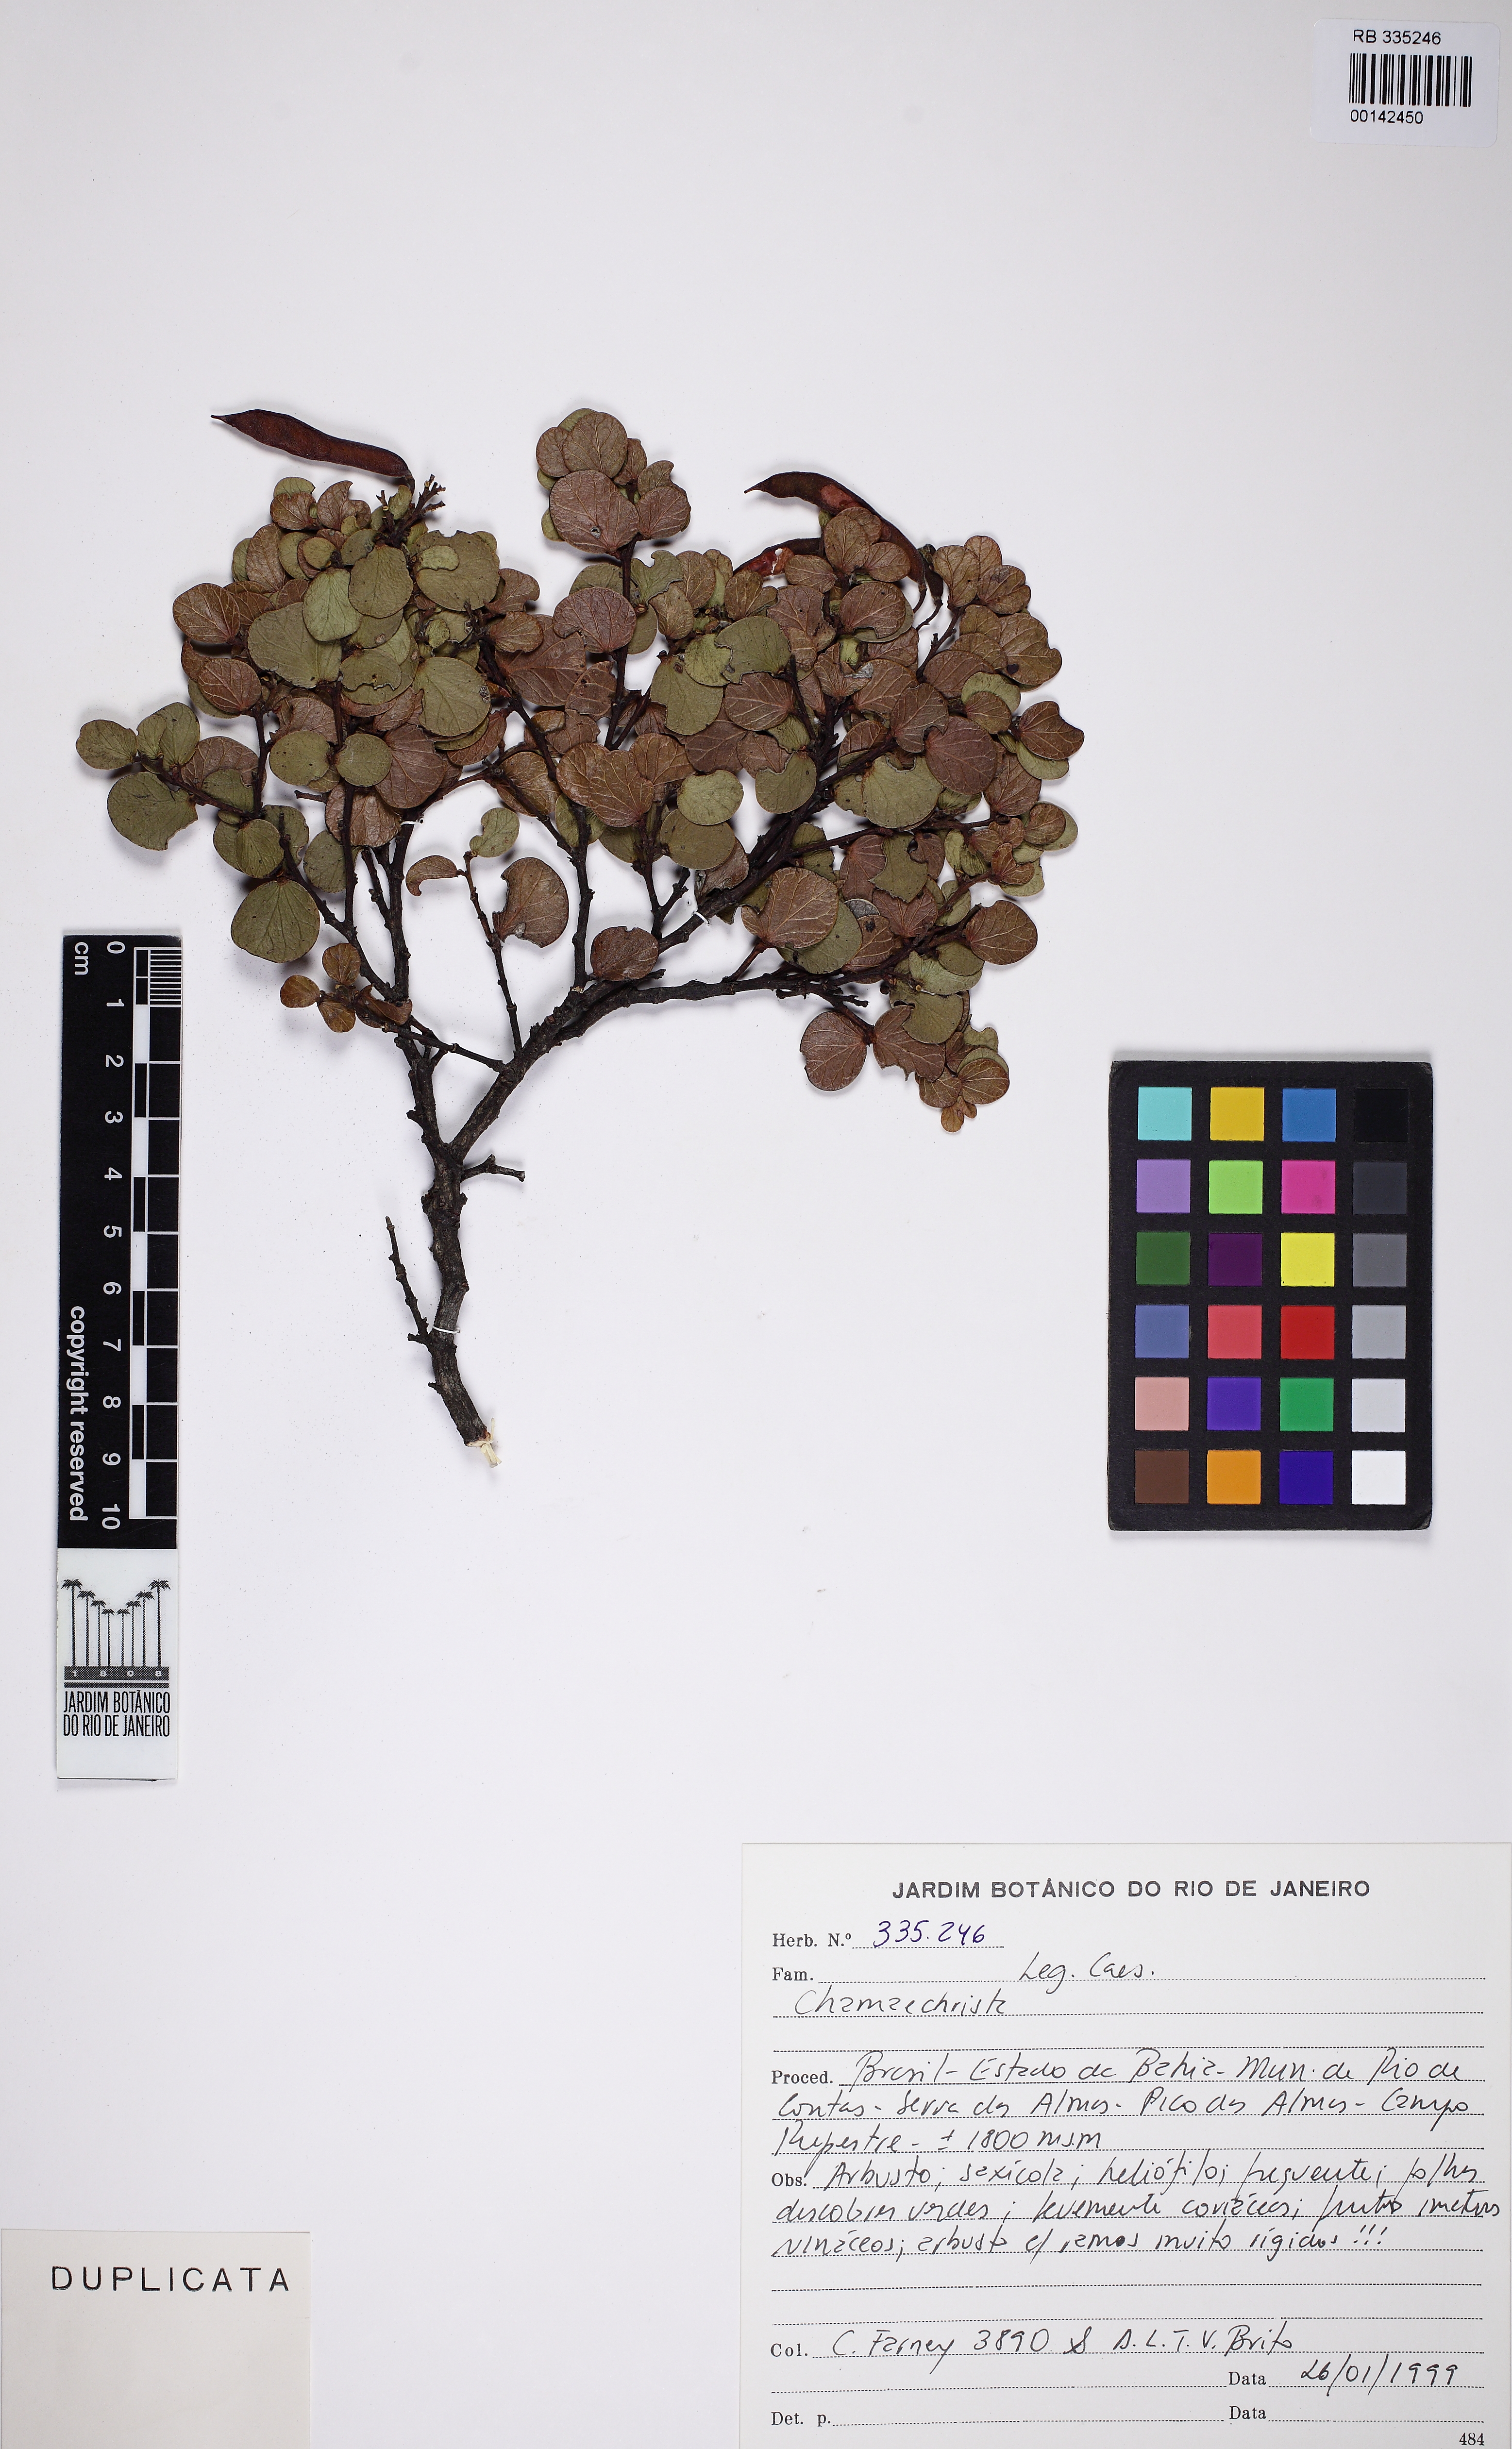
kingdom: Plantae
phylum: Tracheophyta
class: Magnoliopsida
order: Fabales
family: Fabaceae
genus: Chamaecrista
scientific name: Chamaecrista
